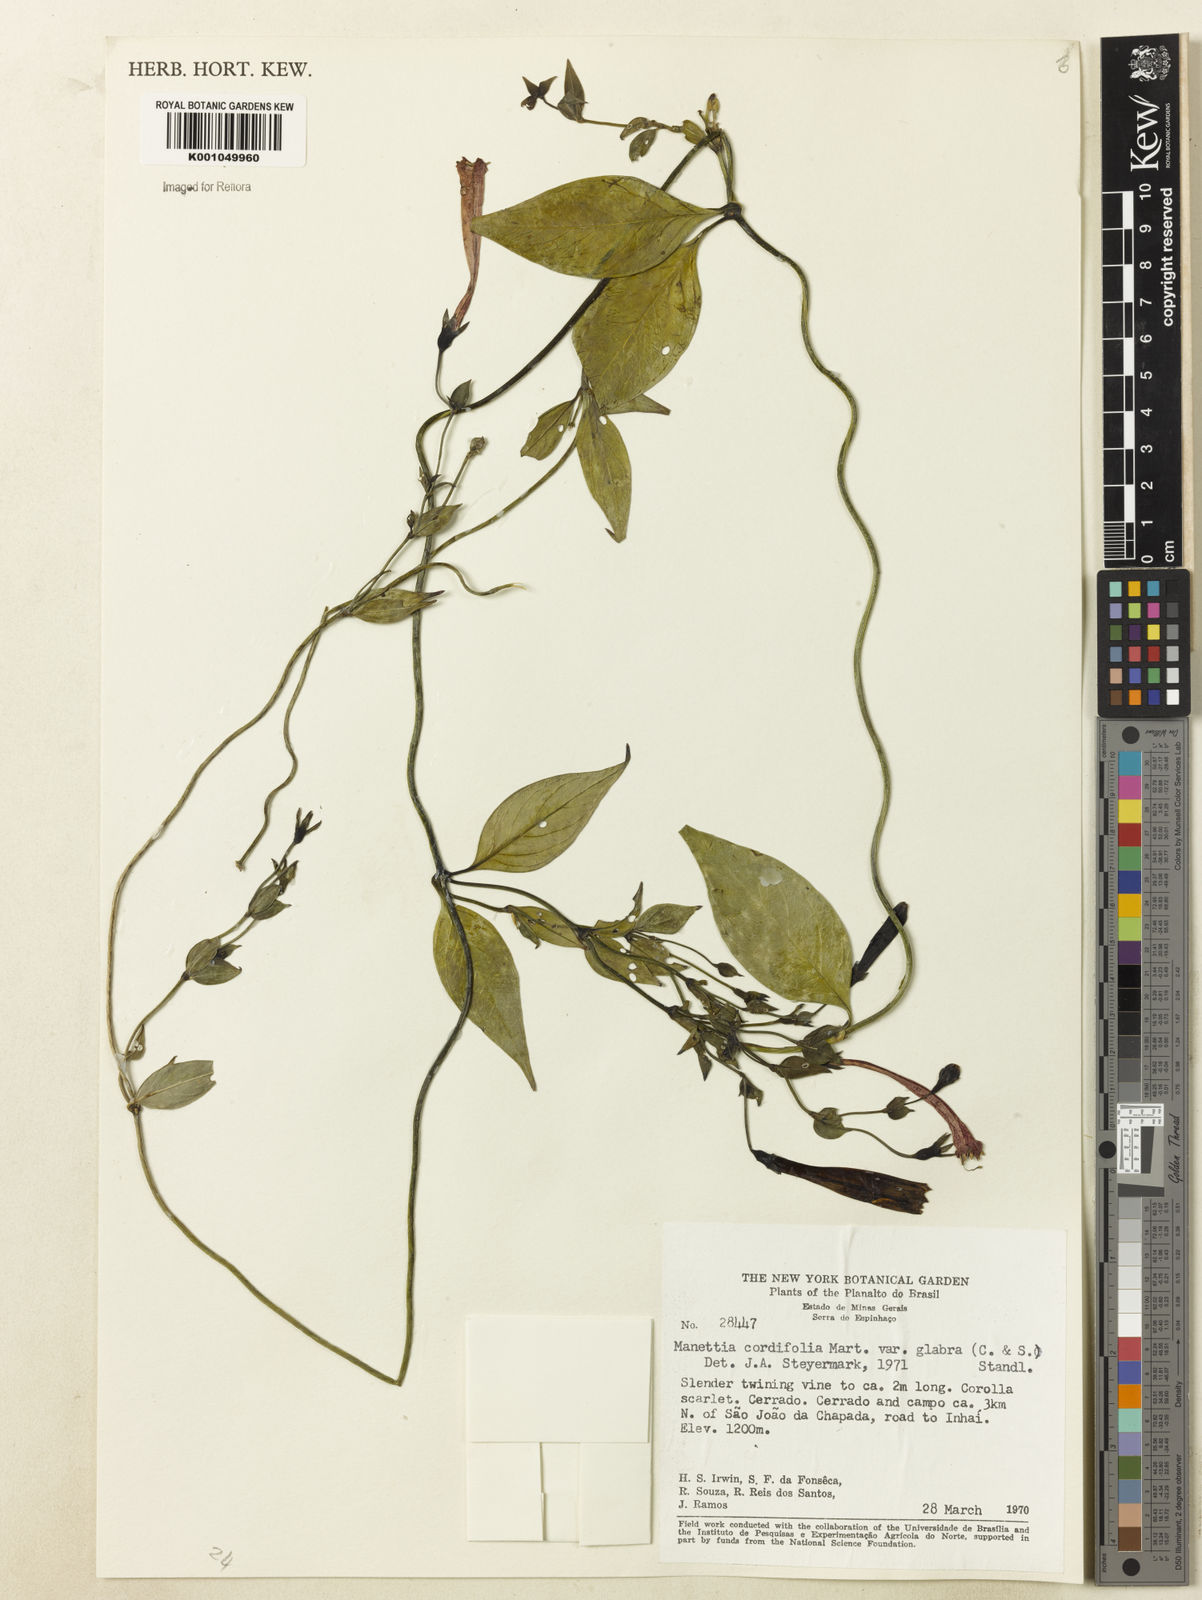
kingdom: Plantae
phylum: Tracheophyta
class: Magnoliopsida
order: Gentianales
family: Rubiaceae
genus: Manettia
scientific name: Manettia cordifolia
